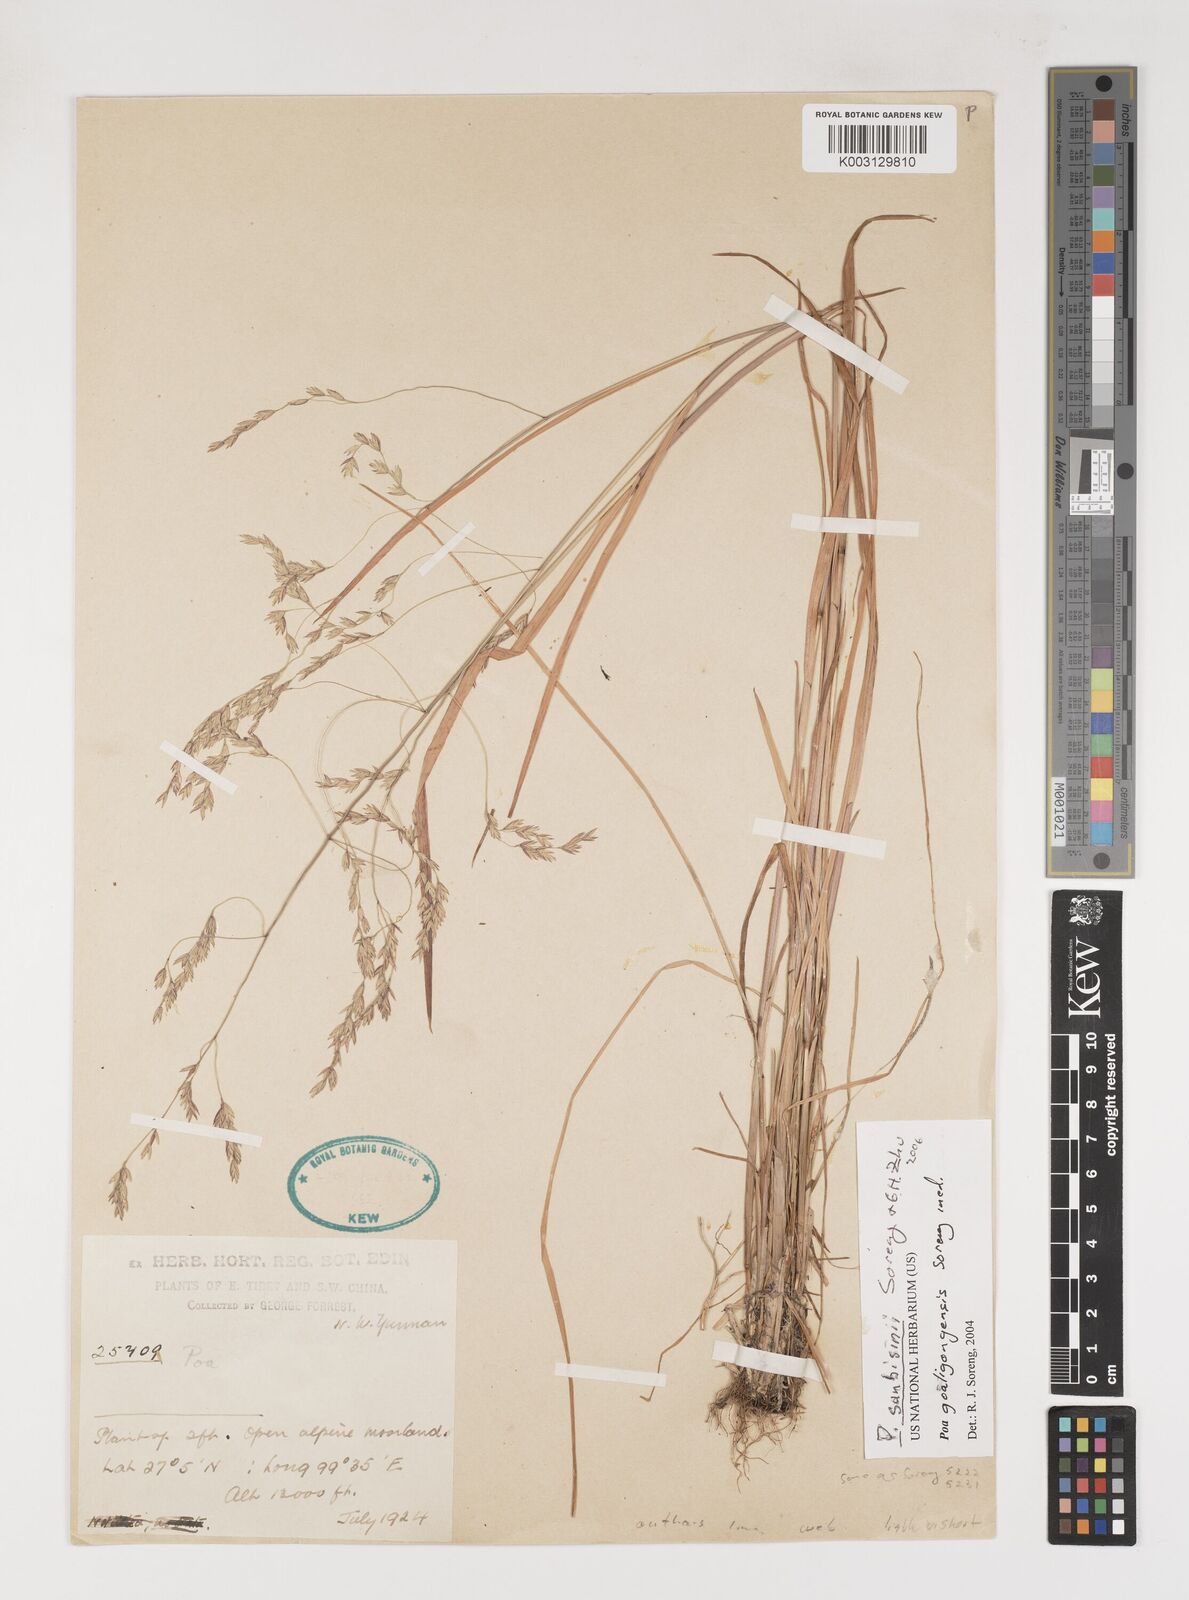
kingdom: Plantae
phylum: Tracheophyta
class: Liliopsida
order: Poales
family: Poaceae
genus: Poa
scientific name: Poa sunbisinii
